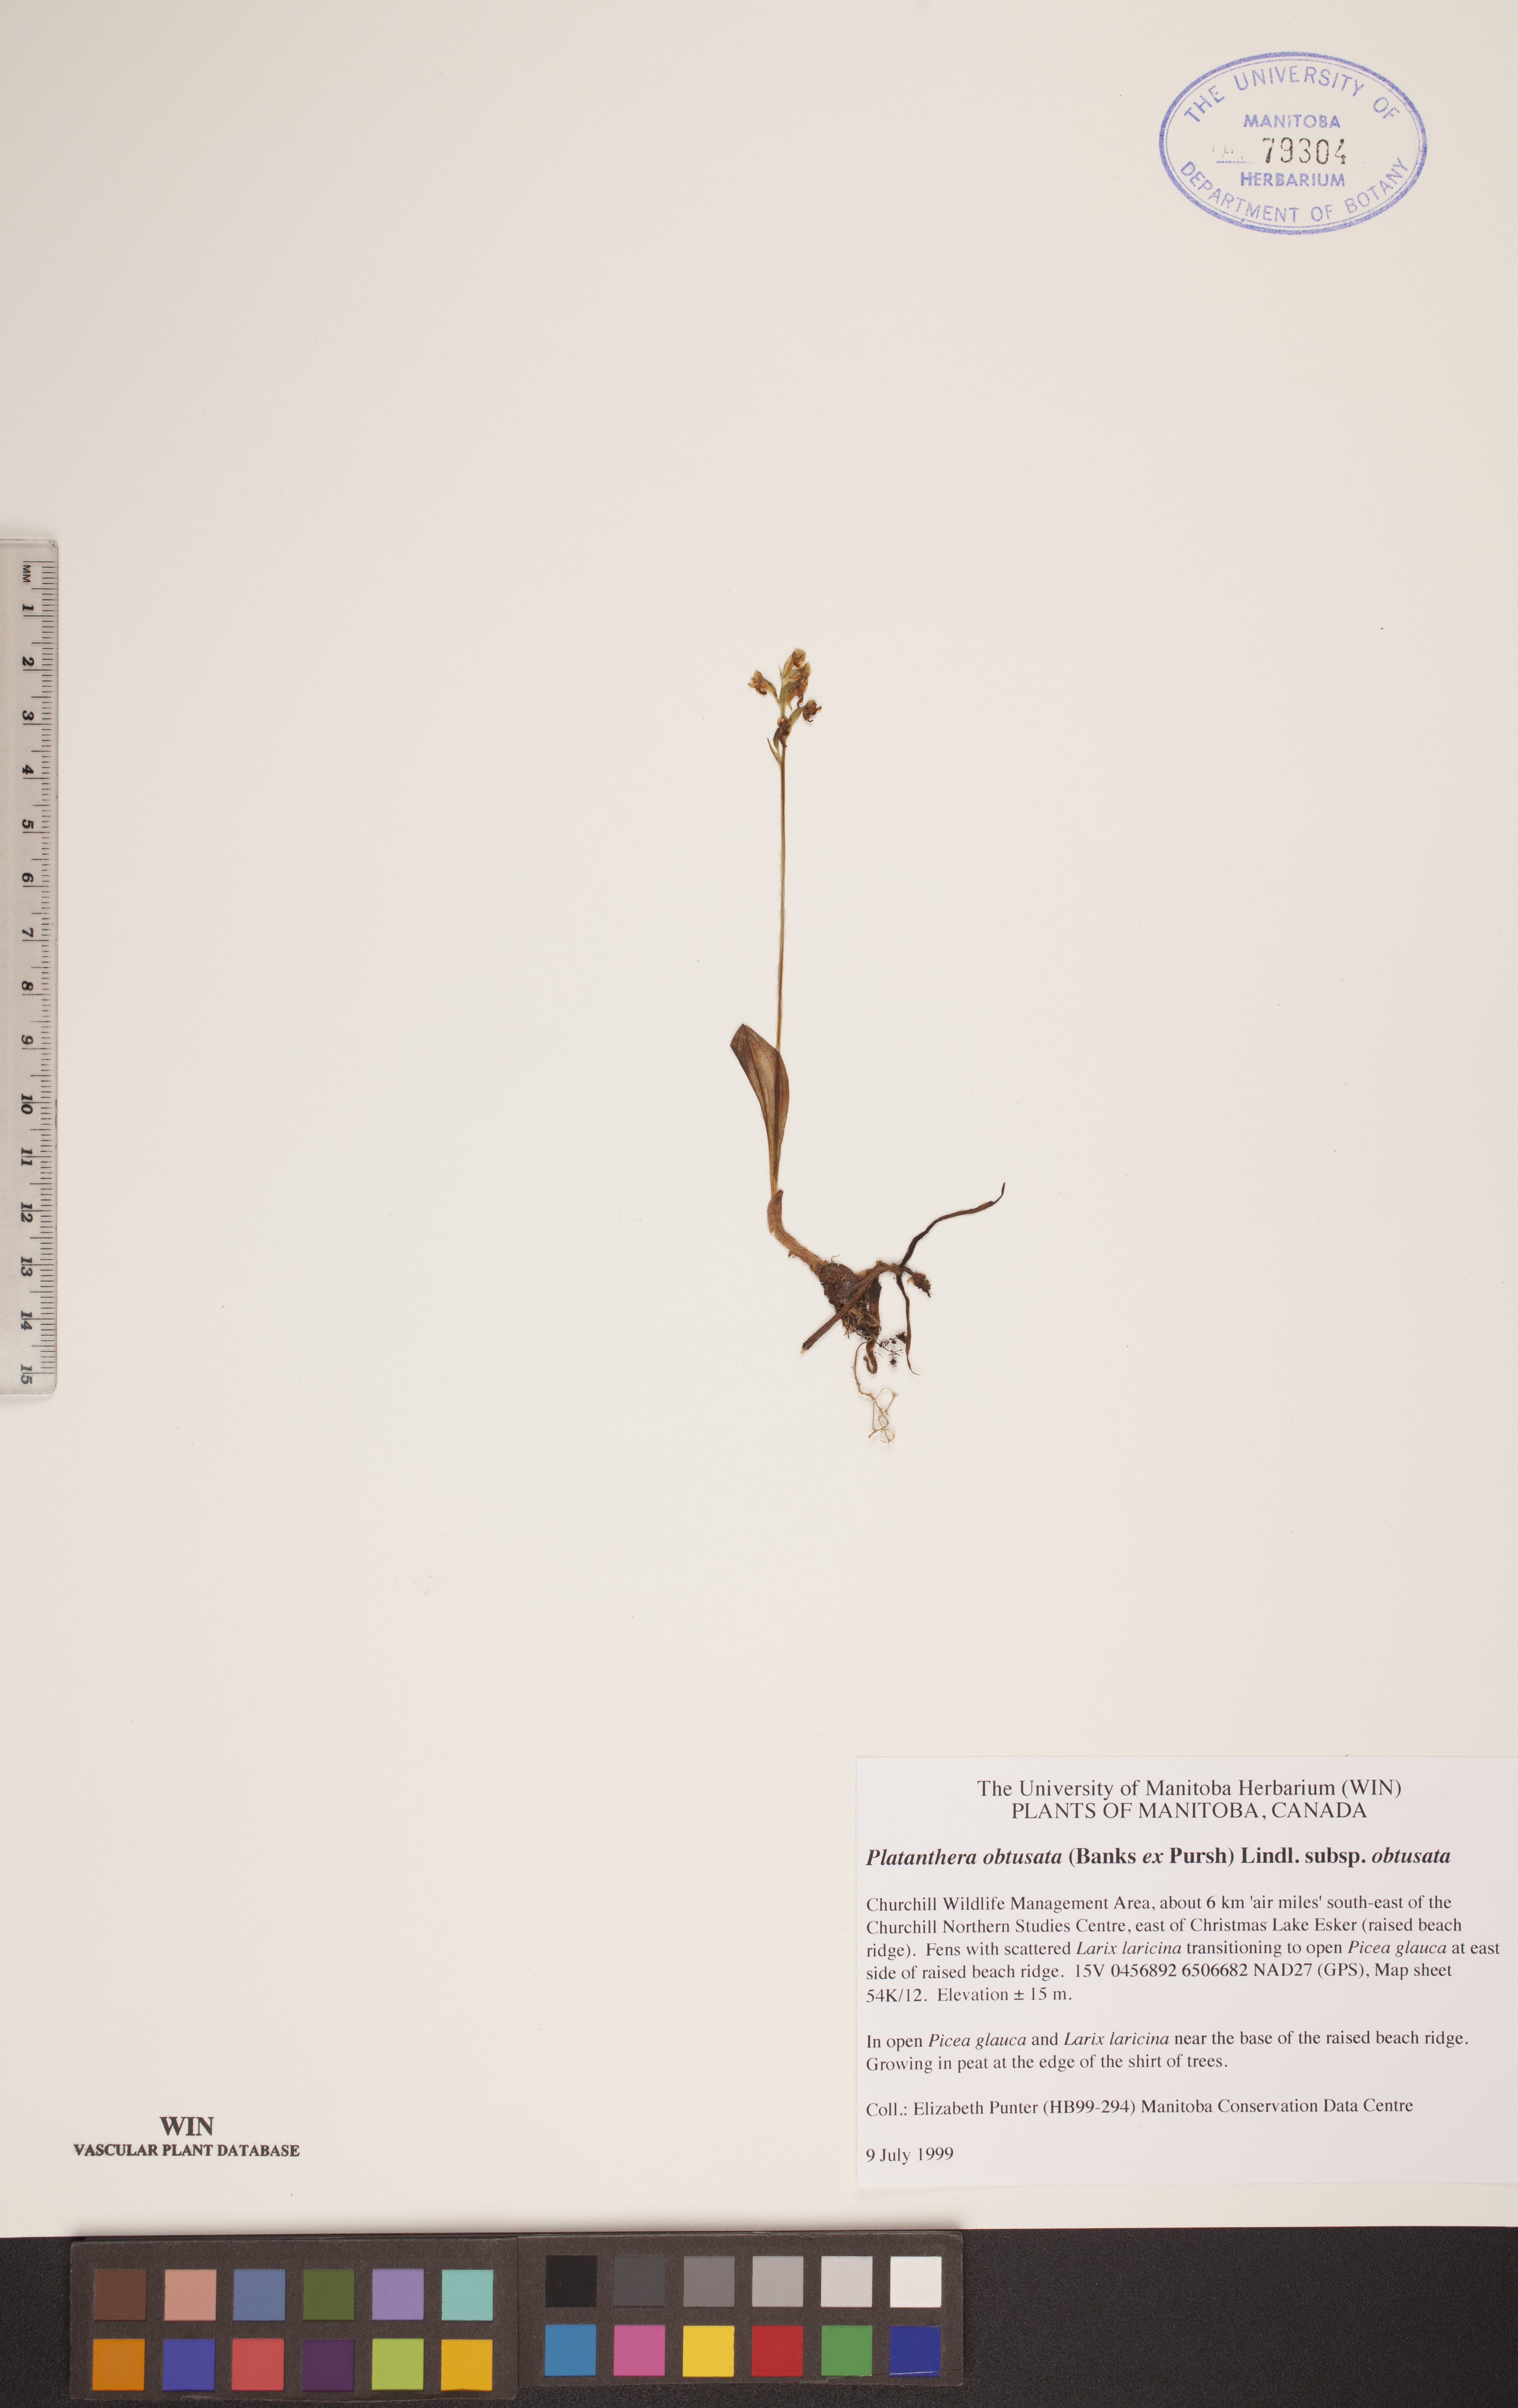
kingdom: Plantae
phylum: Tracheophyta
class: Liliopsida
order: Asparagales
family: Orchidaceae
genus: Platanthera
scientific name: Platanthera obtusata
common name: Blunt bog orchid
